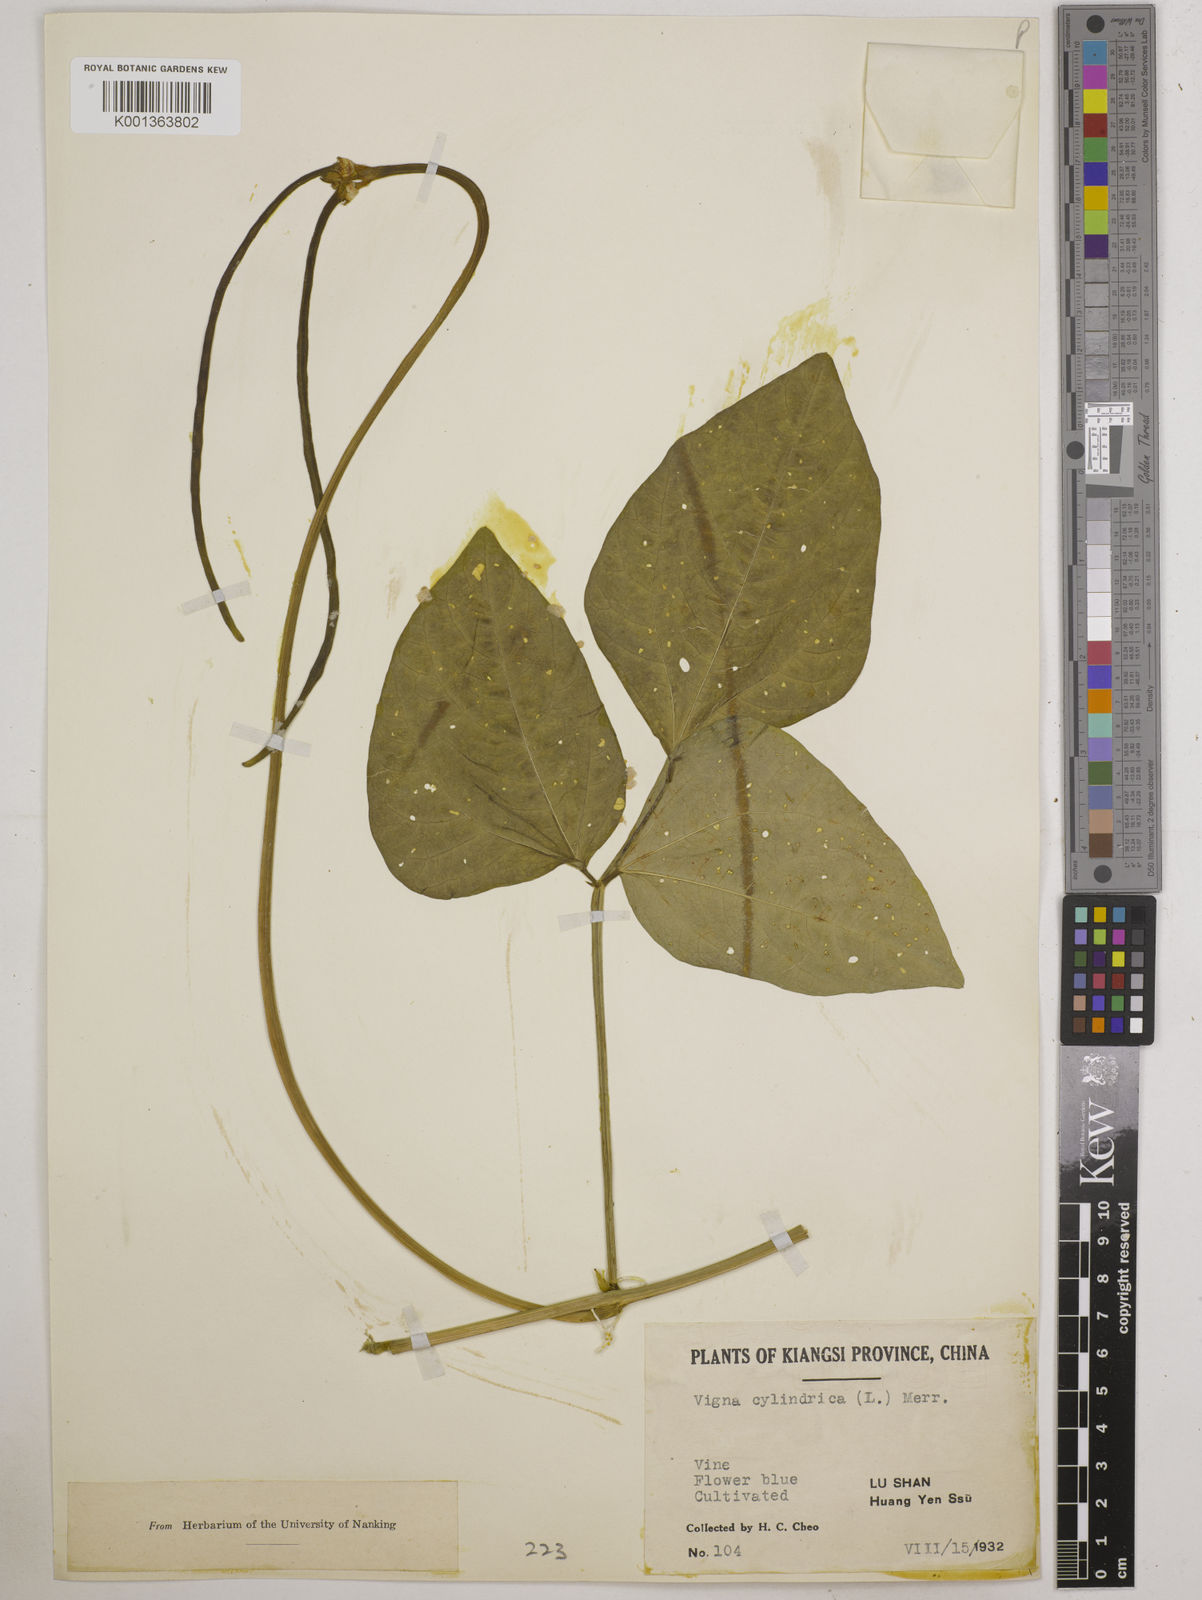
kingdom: Plantae
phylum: Tracheophyta
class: Magnoliopsida
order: Fabales
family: Fabaceae
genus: Vigna
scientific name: Vigna
